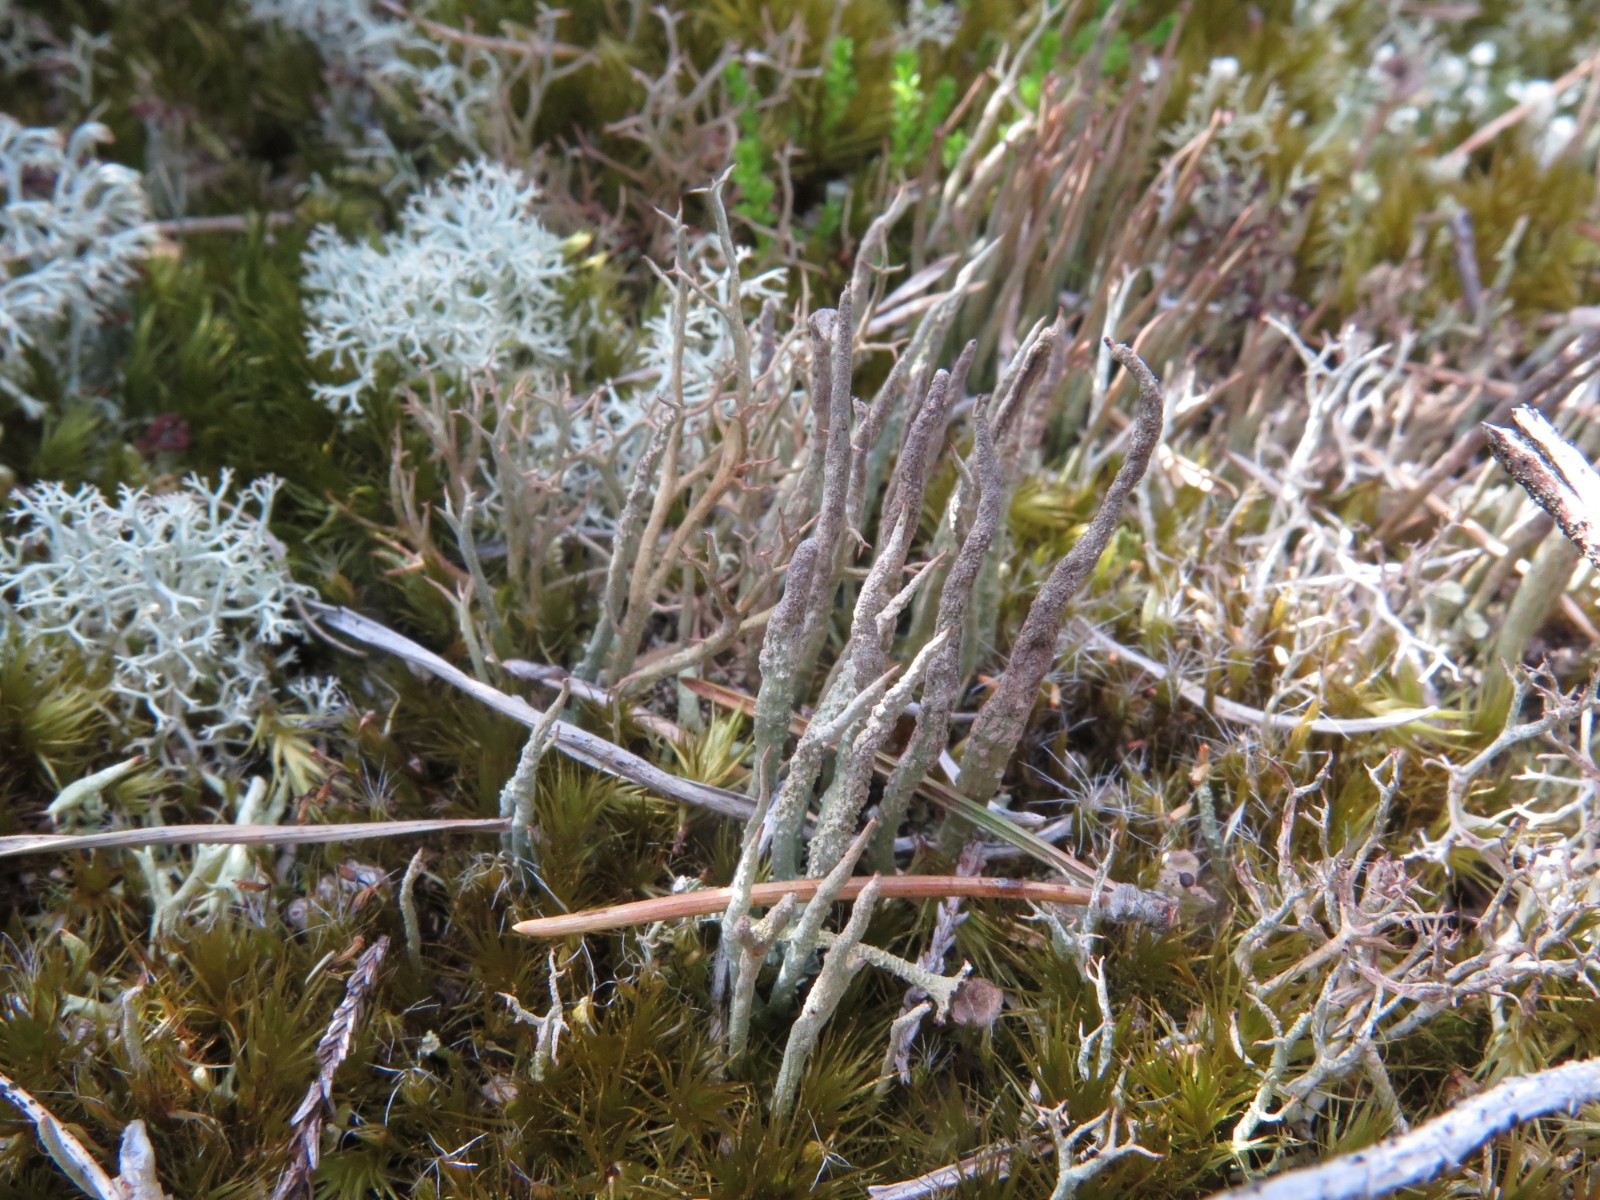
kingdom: Fungi
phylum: Ascomycota
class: Lecanoromycetes
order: Lecanorales
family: Cladoniaceae
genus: Cladonia
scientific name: Cladonia cornuta
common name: syl-bægerlav
